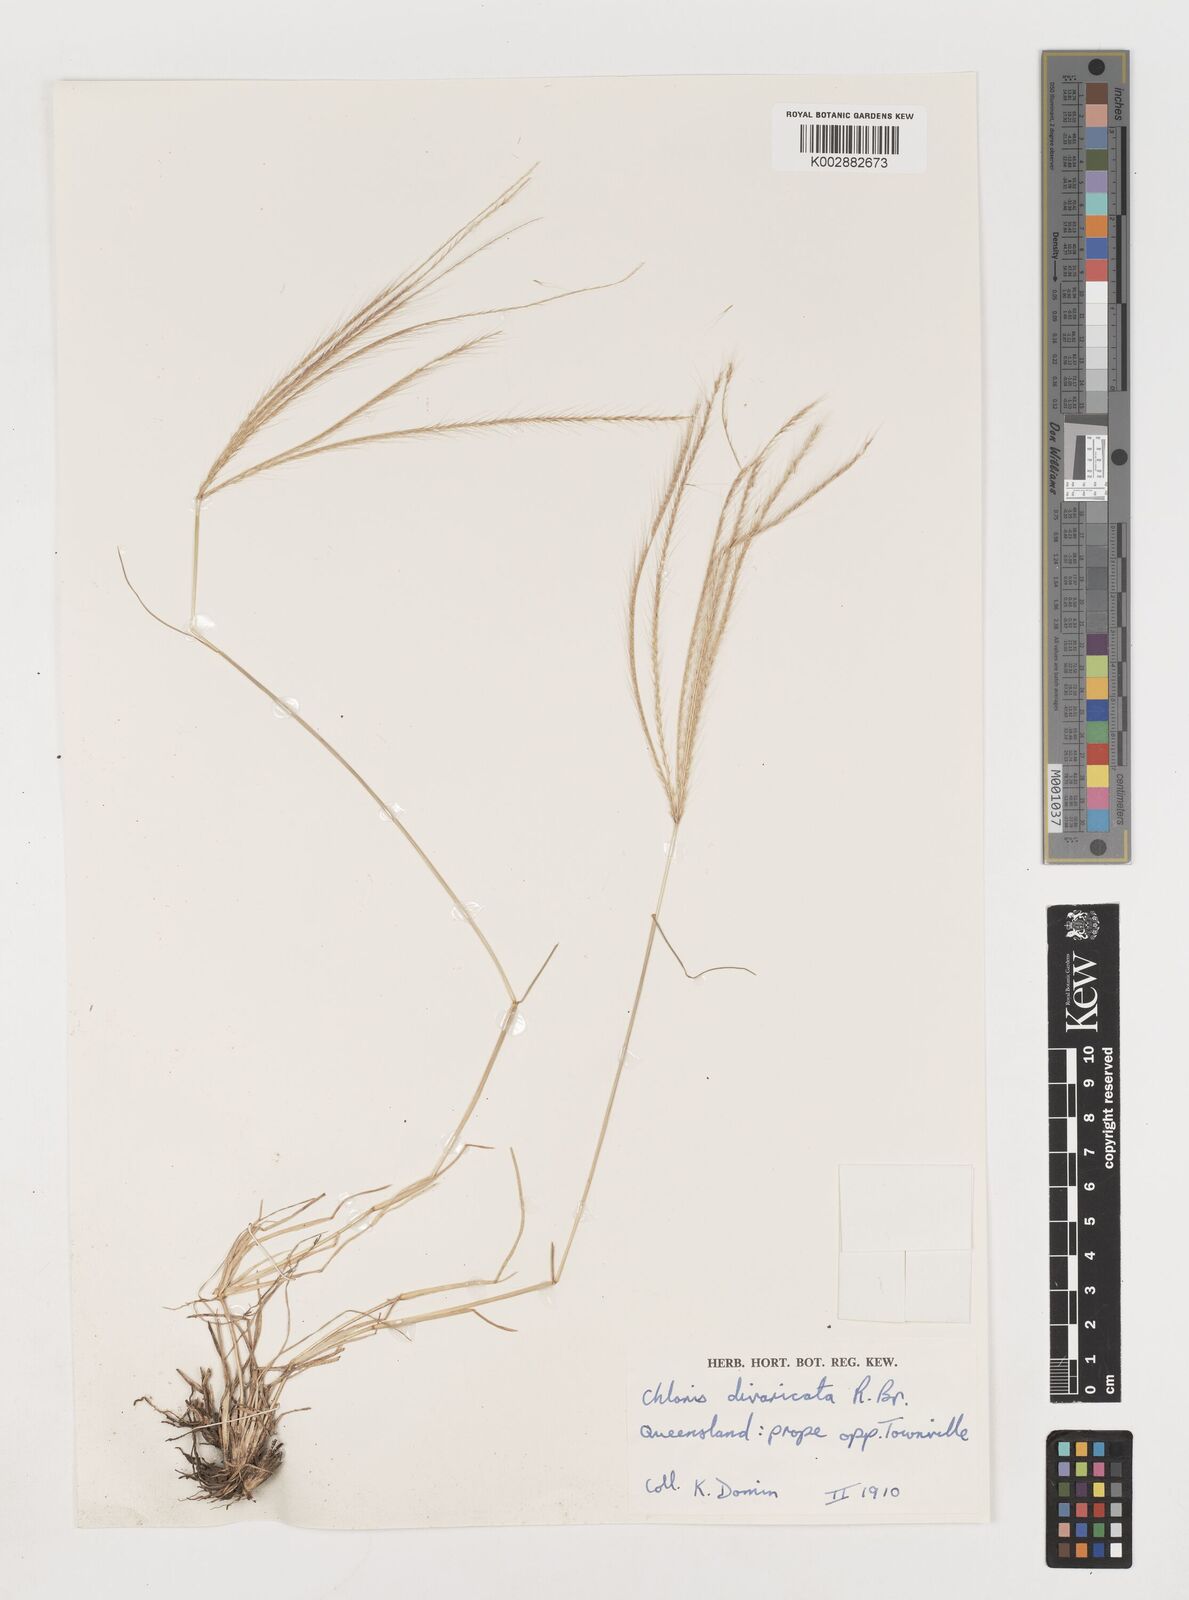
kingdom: Plantae
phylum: Tracheophyta
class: Liliopsida
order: Poales
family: Poaceae
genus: Chloris
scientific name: Chloris divaricata
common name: Spreading windmill grass
